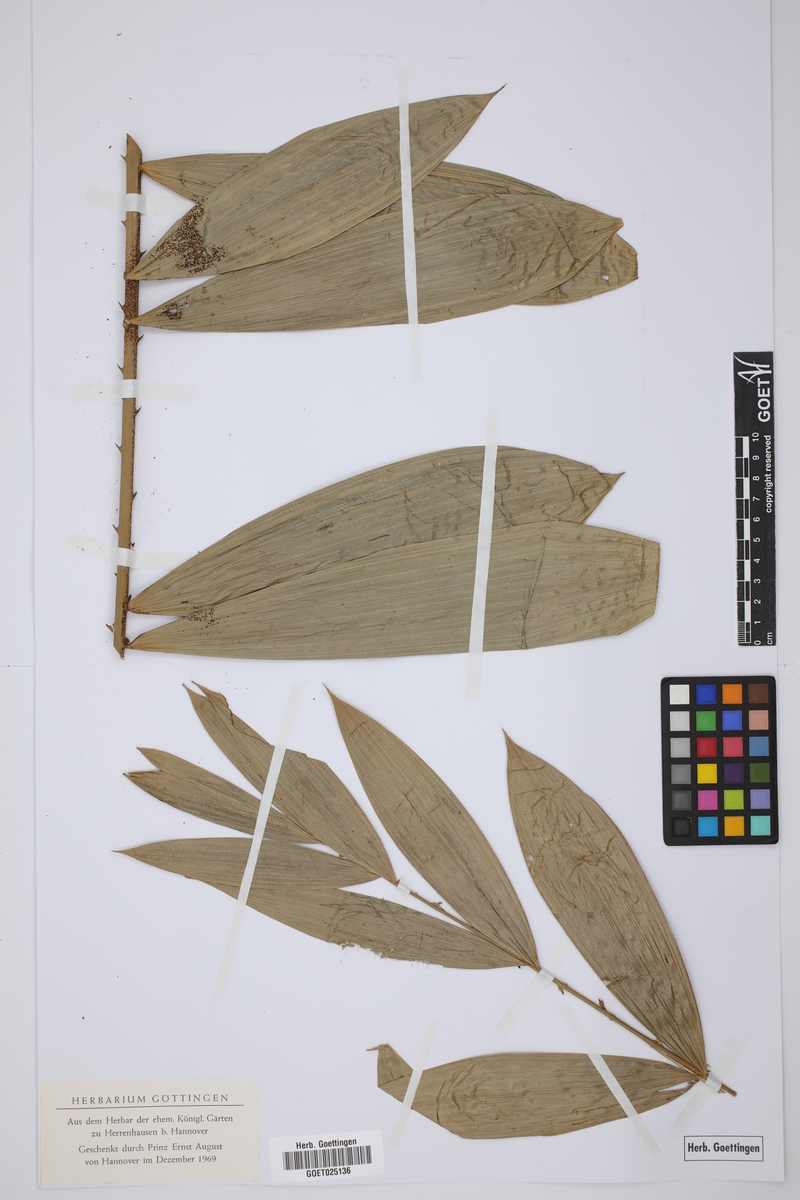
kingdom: Plantae
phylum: Tracheophyta
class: Liliopsida
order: Arecales
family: Arecaceae
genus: Phoenix
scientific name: Phoenix
